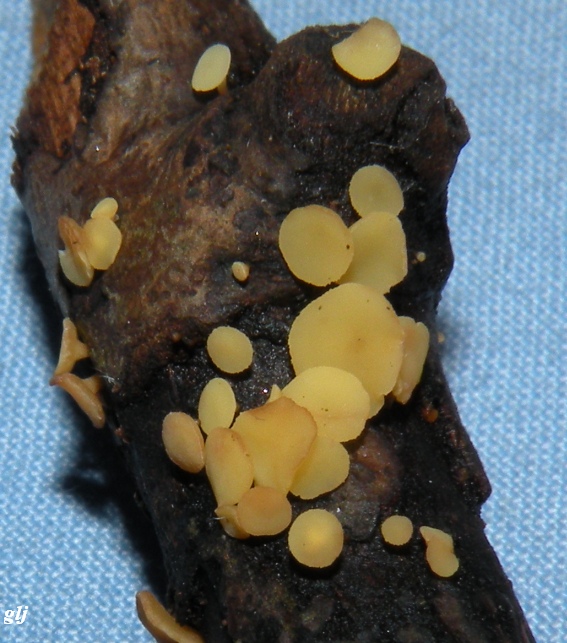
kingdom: Fungi
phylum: Ascomycota
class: Leotiomycetes
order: Helotiales
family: Helotiaceae
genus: Hymenoscyphus
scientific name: Hymenoscyphus
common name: stilkskive
